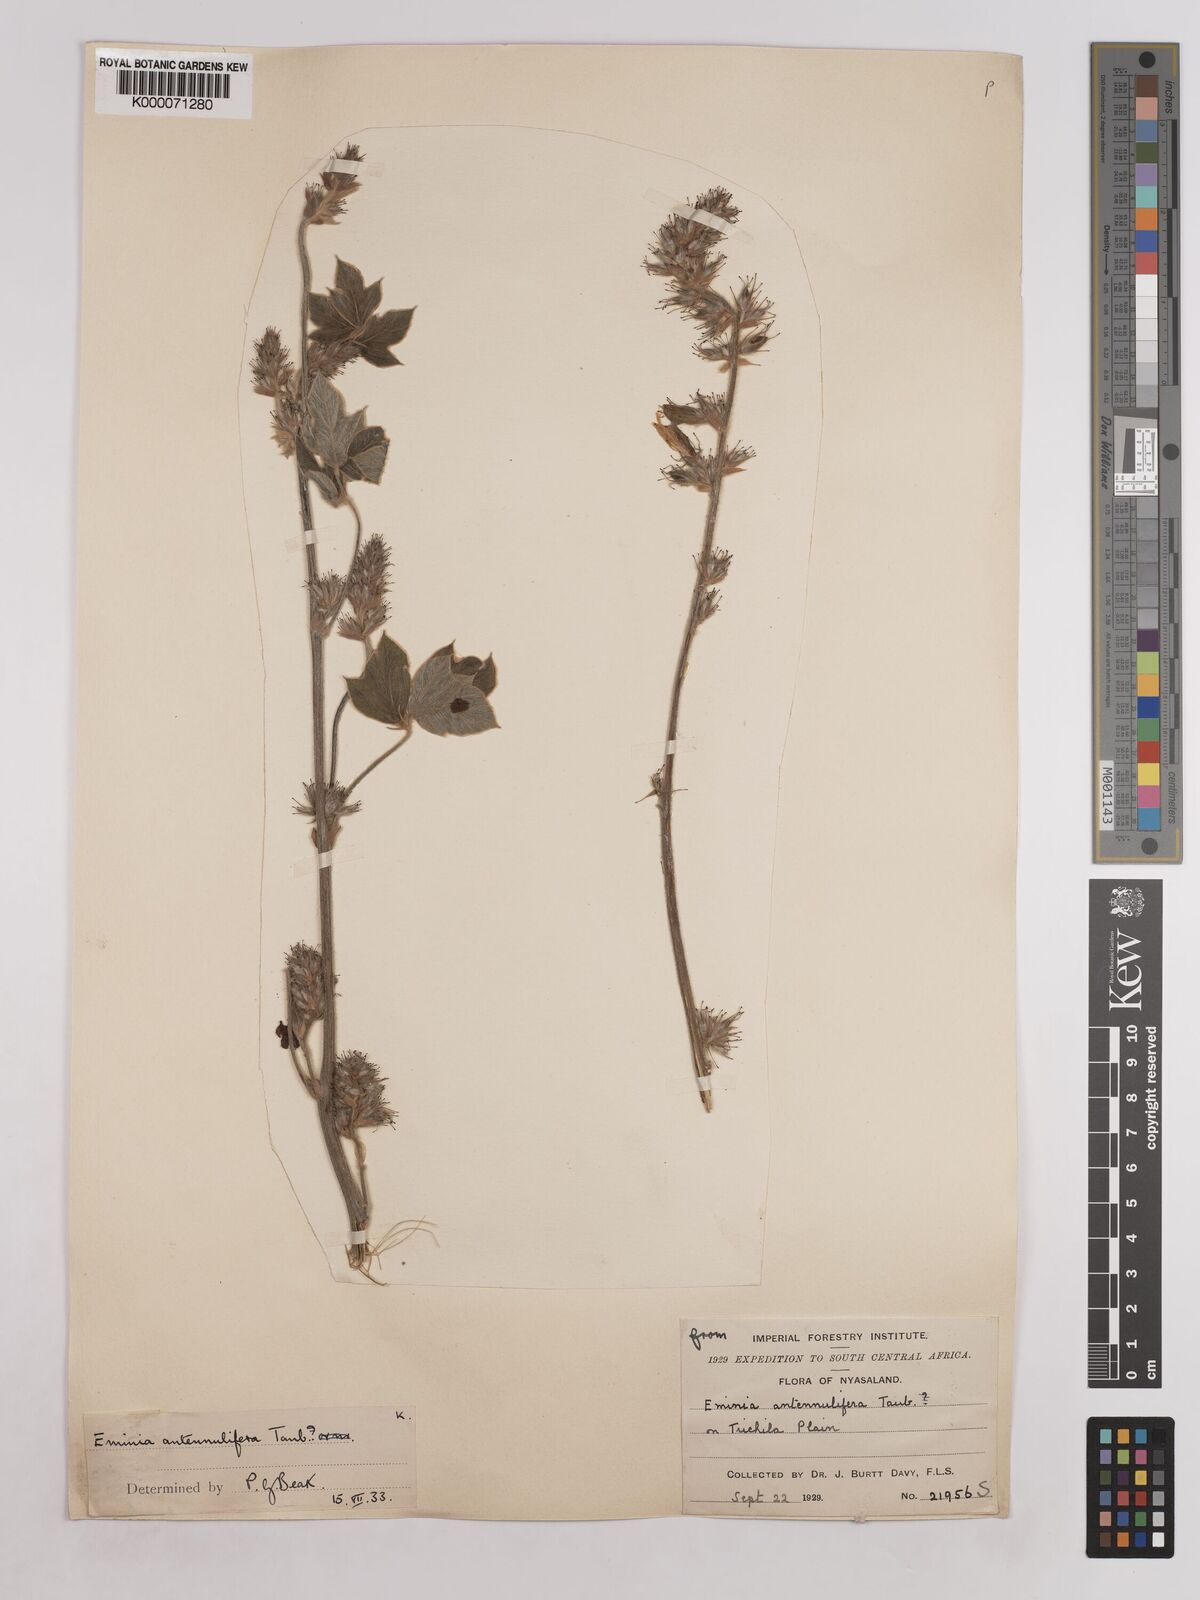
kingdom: Plantae
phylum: Tracheophyta
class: Magnoliopsida
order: Fabales
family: Fabaceae
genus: Eminia
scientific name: Eminia antennulifera
